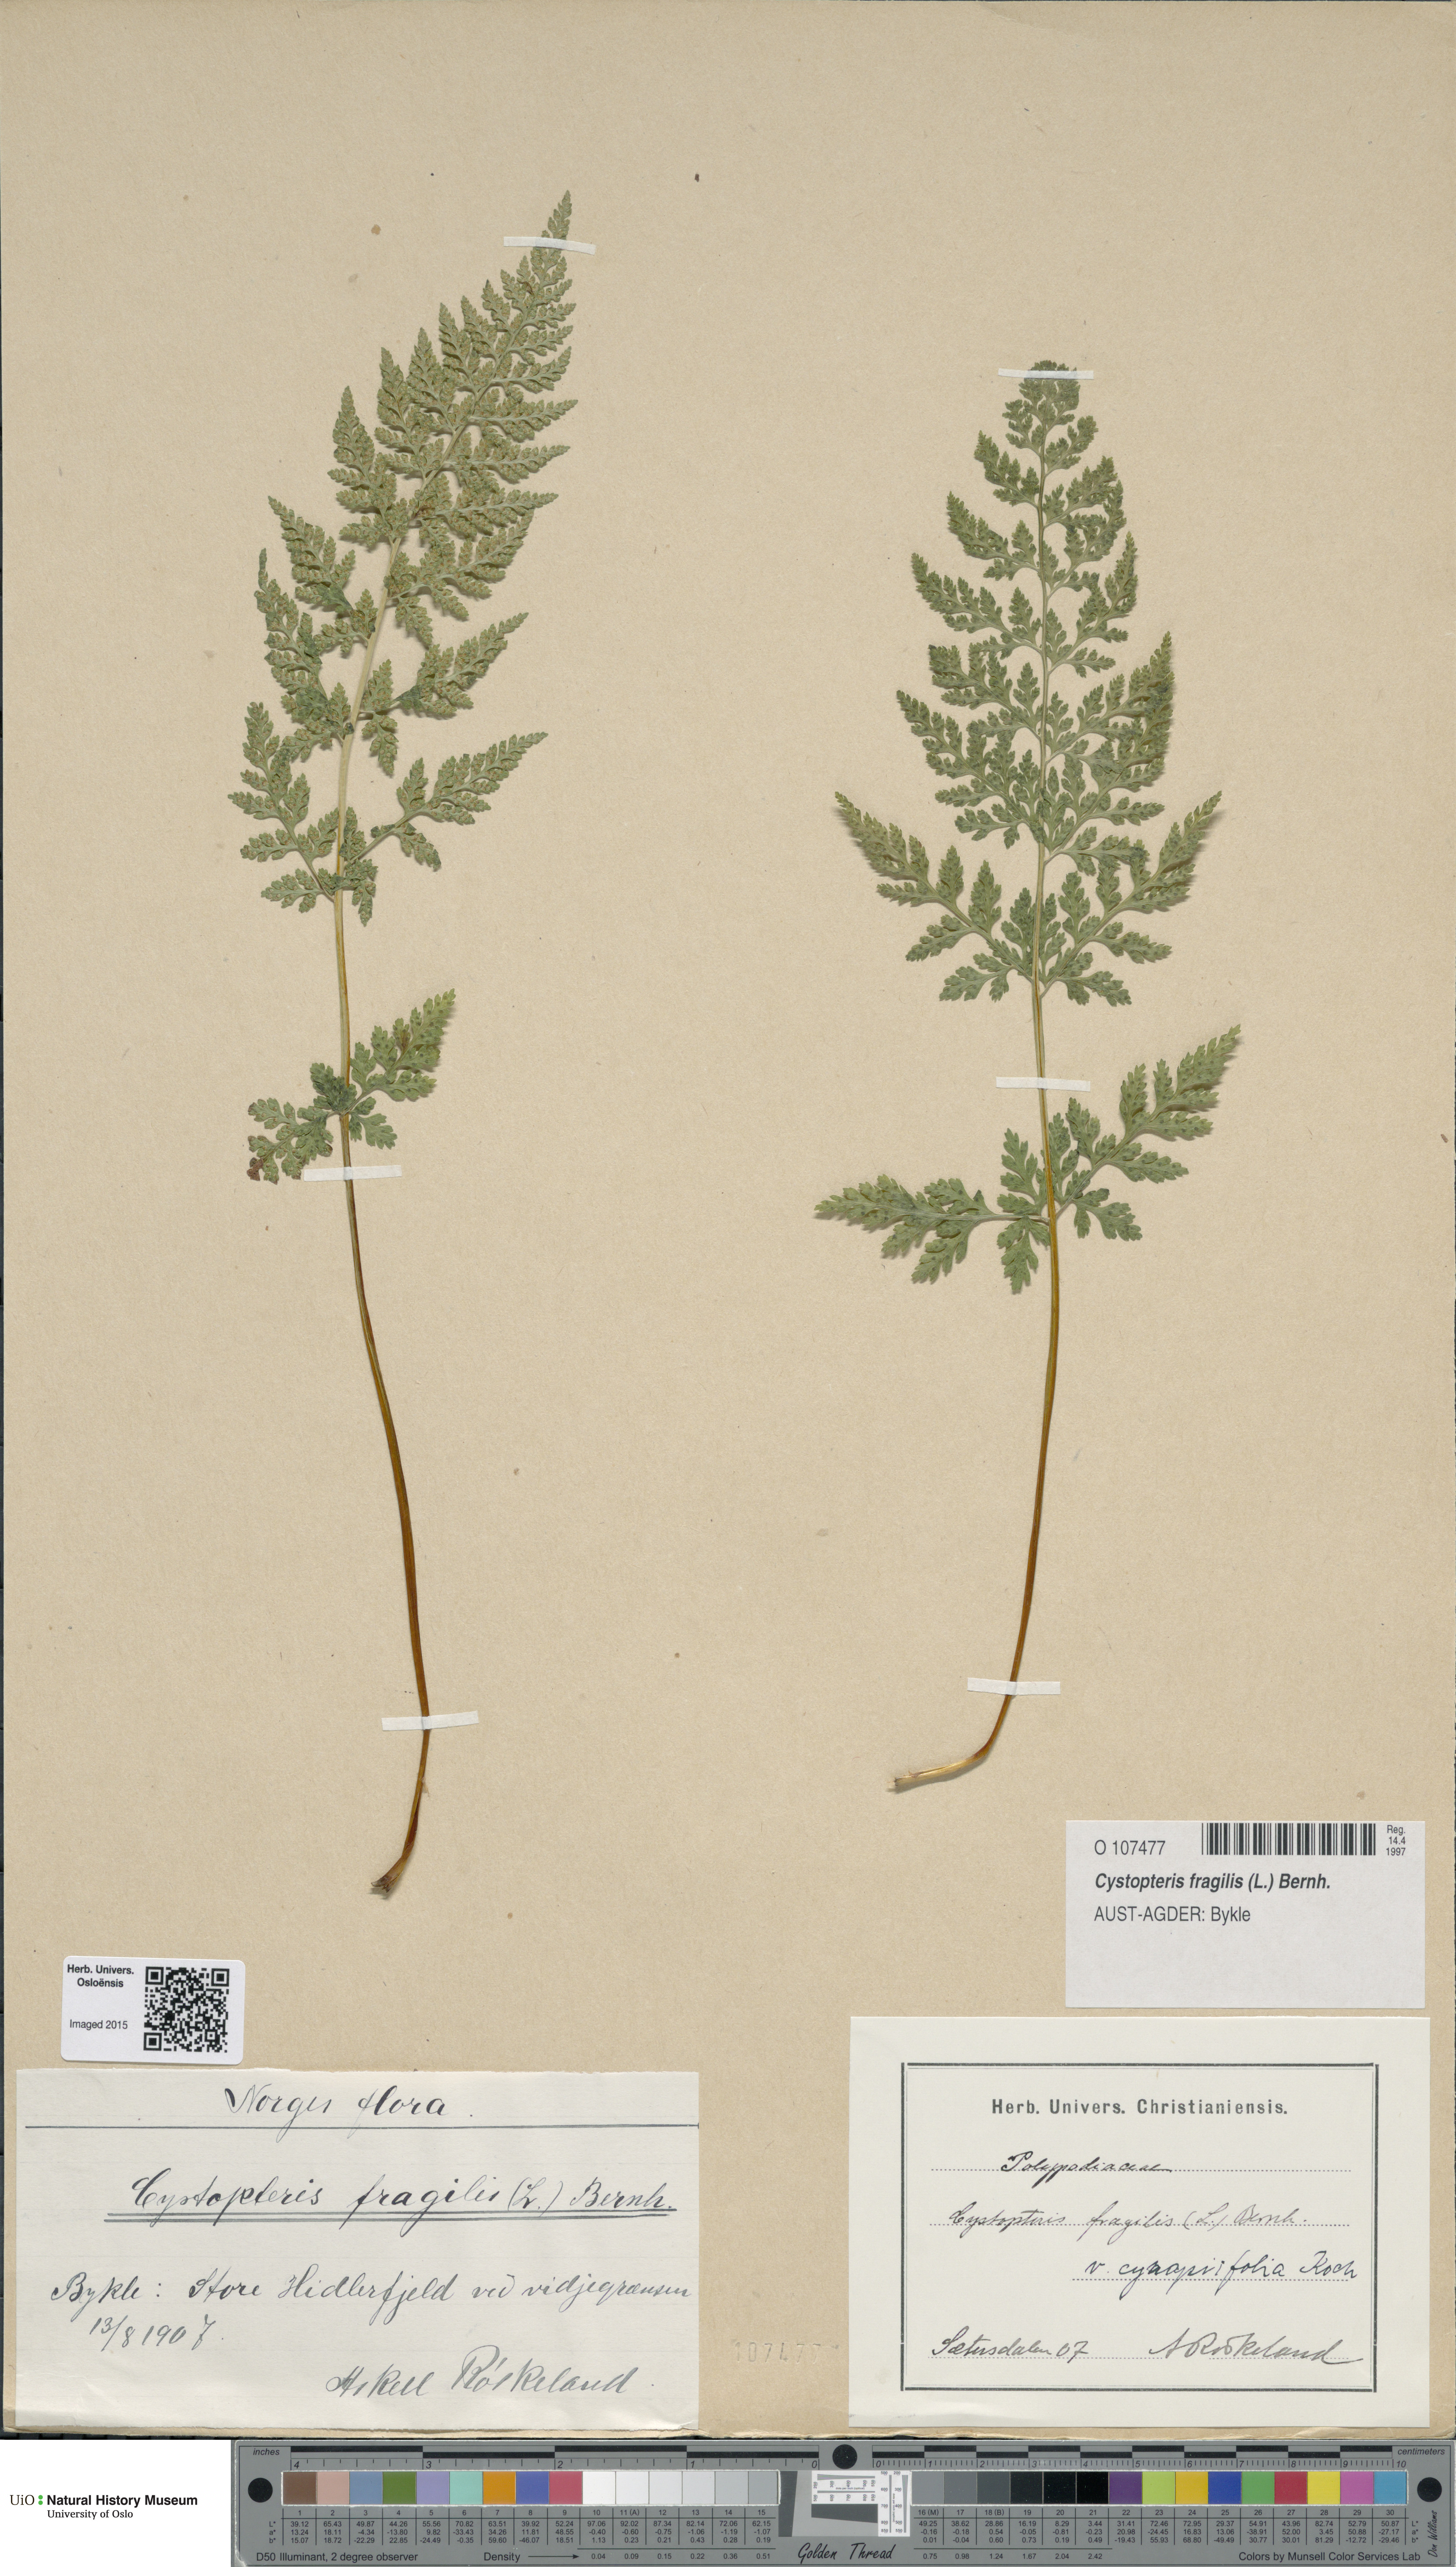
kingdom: Plantae
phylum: Tracheophyta
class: Polypodiopsida
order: Polypodiales
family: Cystopteridaceae
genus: Cystopteris
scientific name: Cystopteris fragilis
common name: Brittle bladder fern
